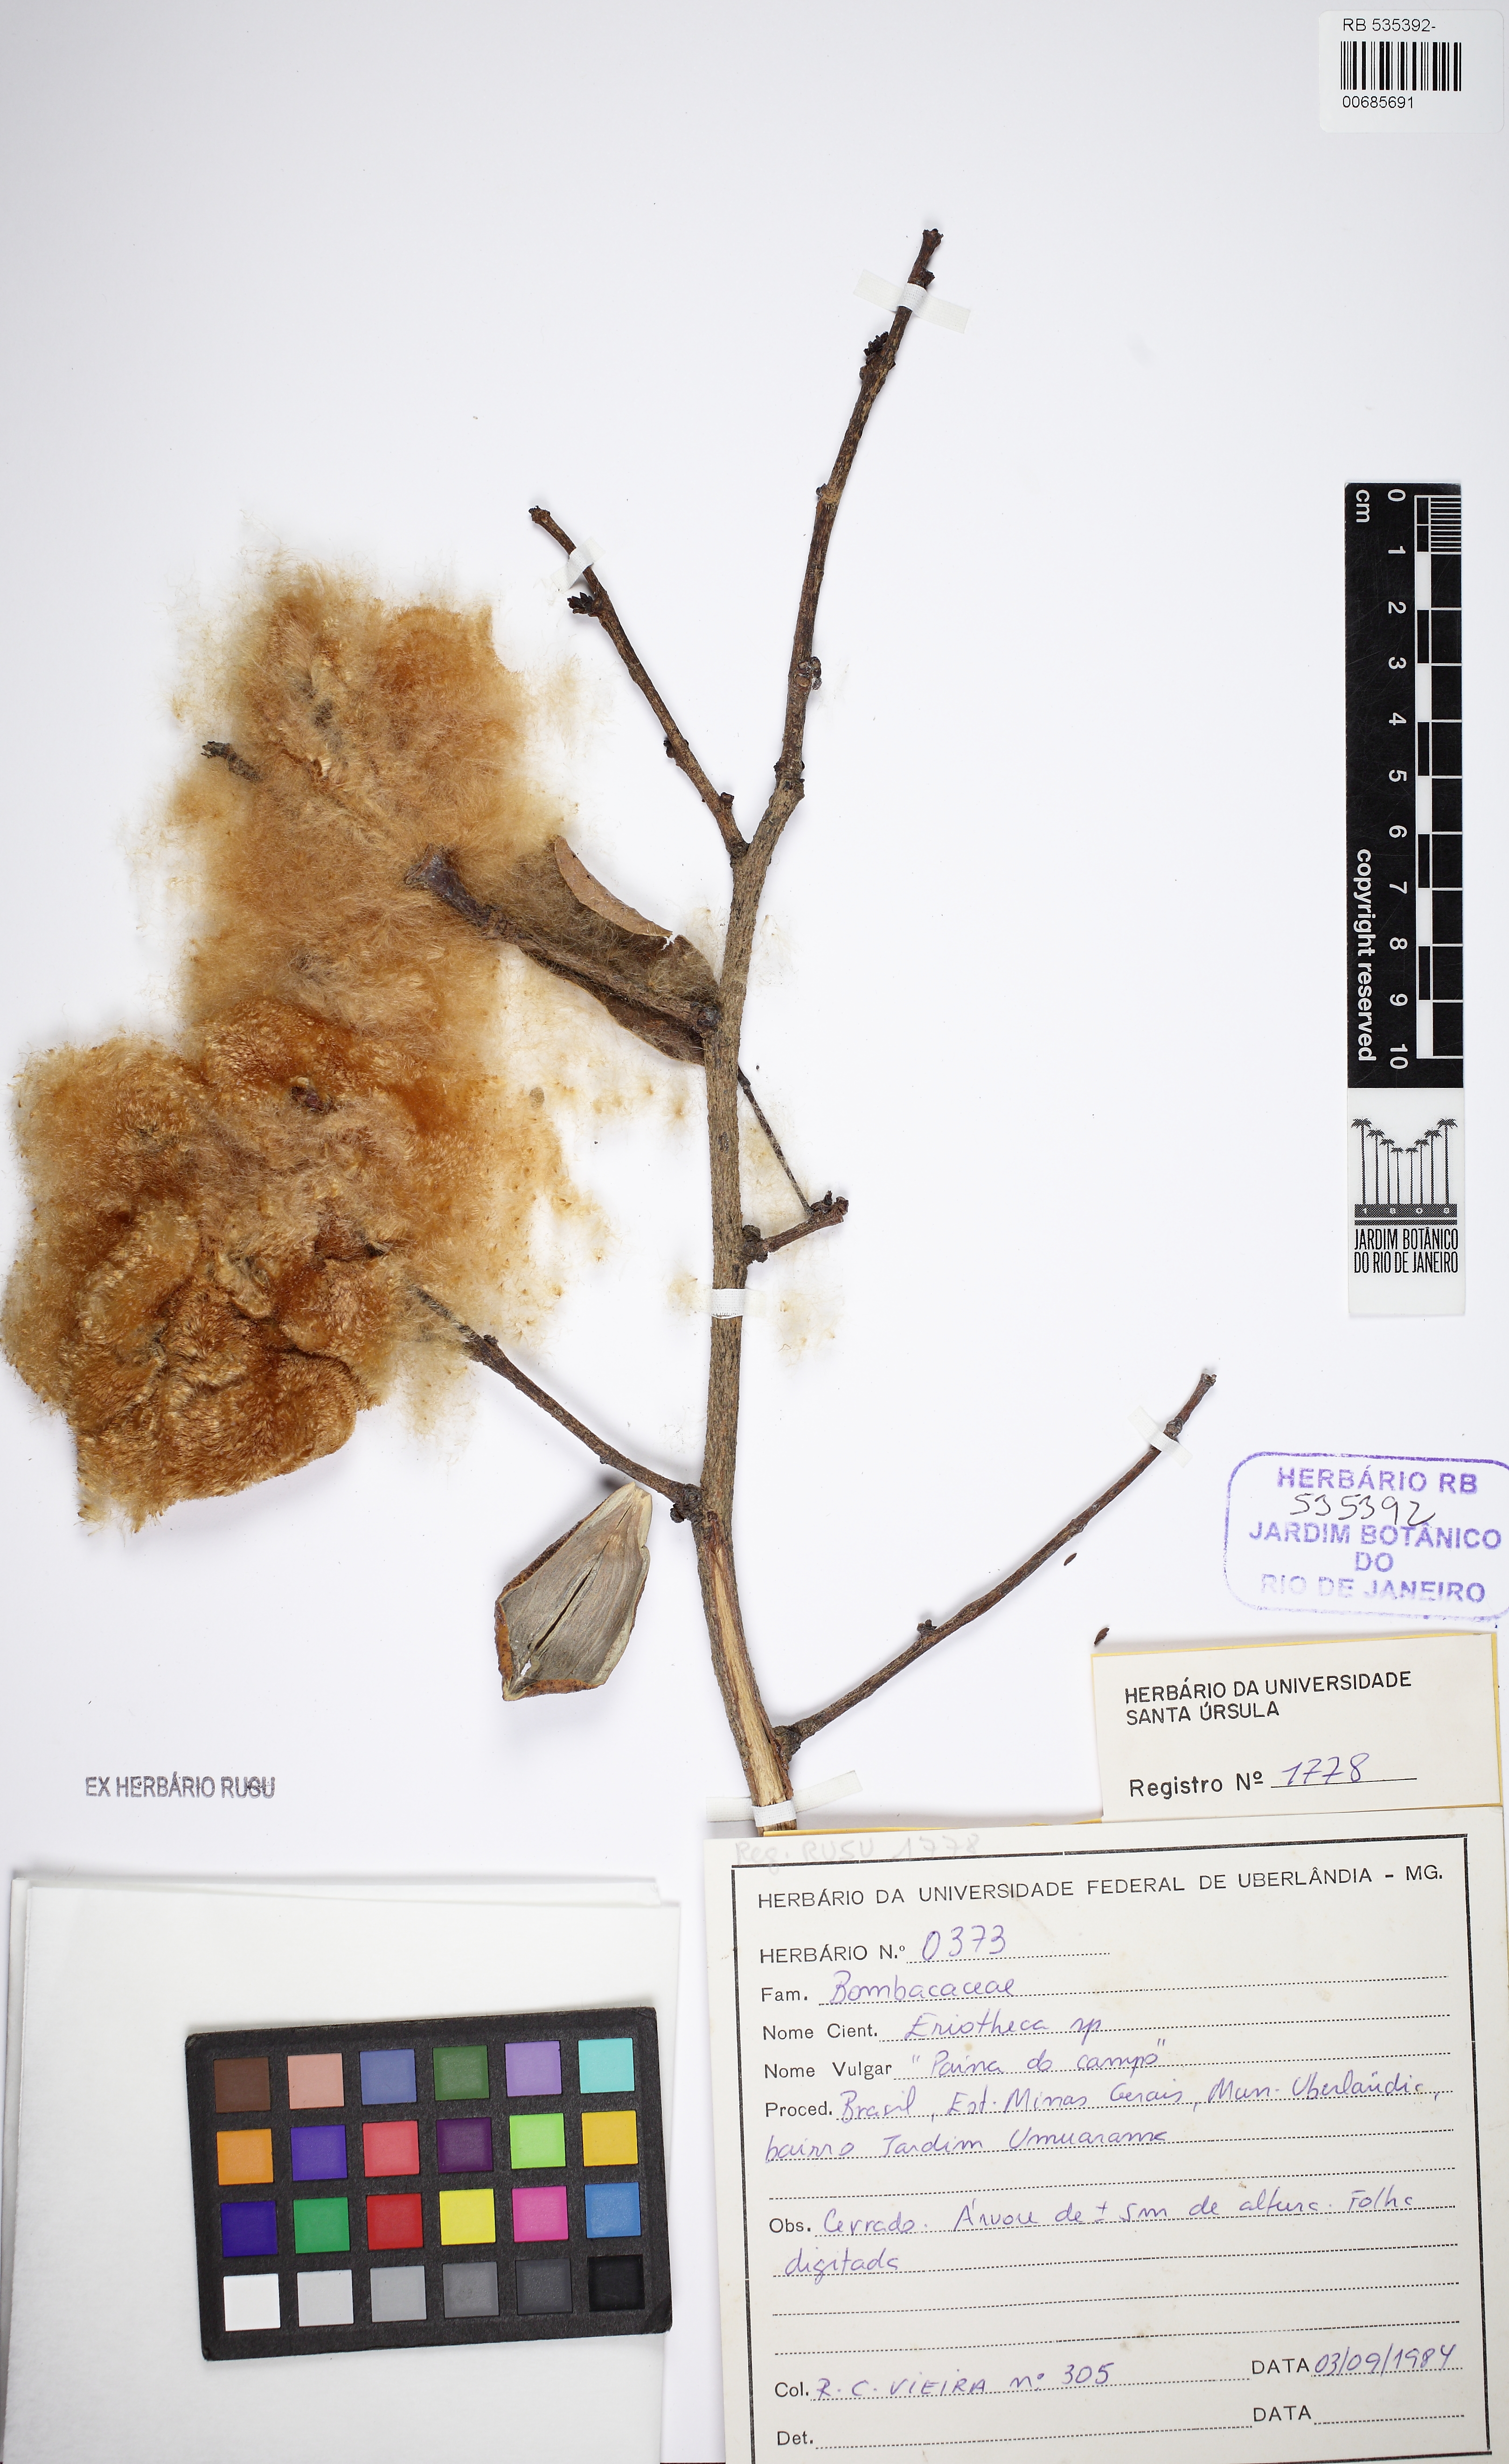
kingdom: Plantae
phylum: Tracheophyta
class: Magnoliopsida
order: Malvales
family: Malvaceae
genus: Eriotheca
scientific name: Eriotheca
